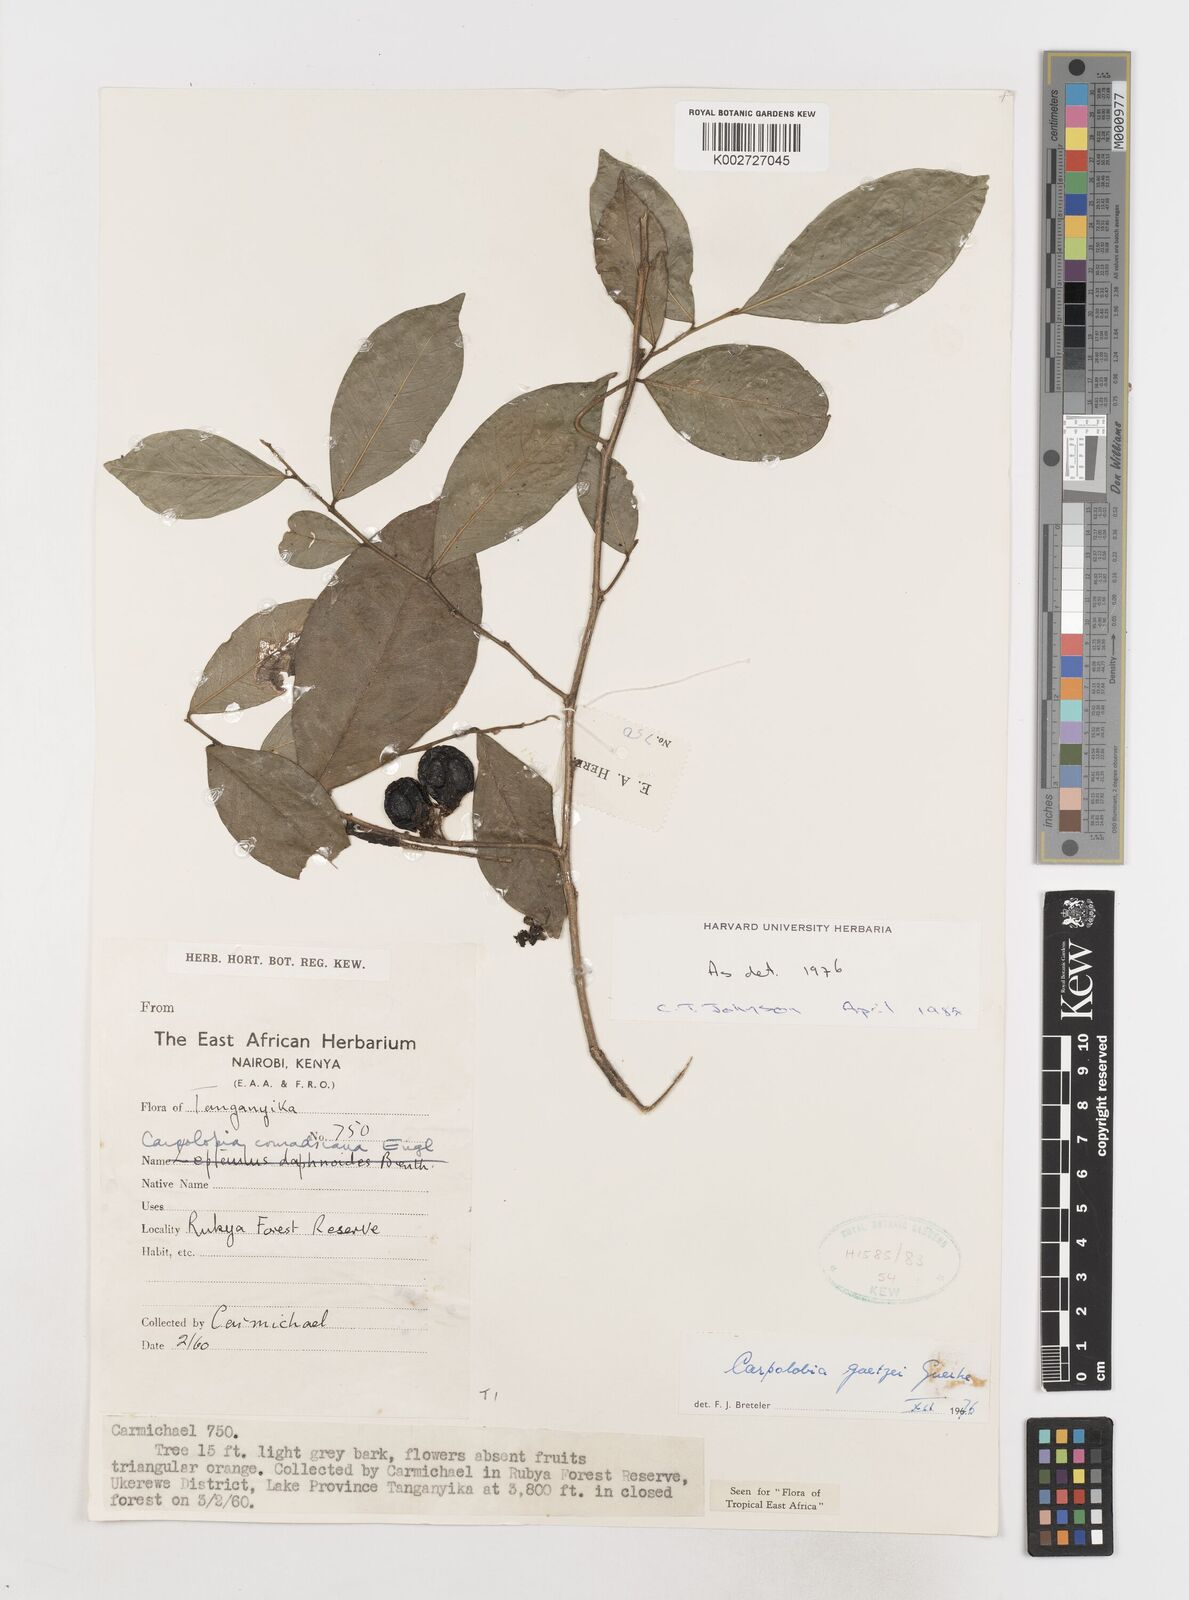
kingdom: Plantae
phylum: Tracheophyta
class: Magnoliopsida
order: Fabales
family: Polygalaceae
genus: Carpolobia
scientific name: Carpolobia goetzei
